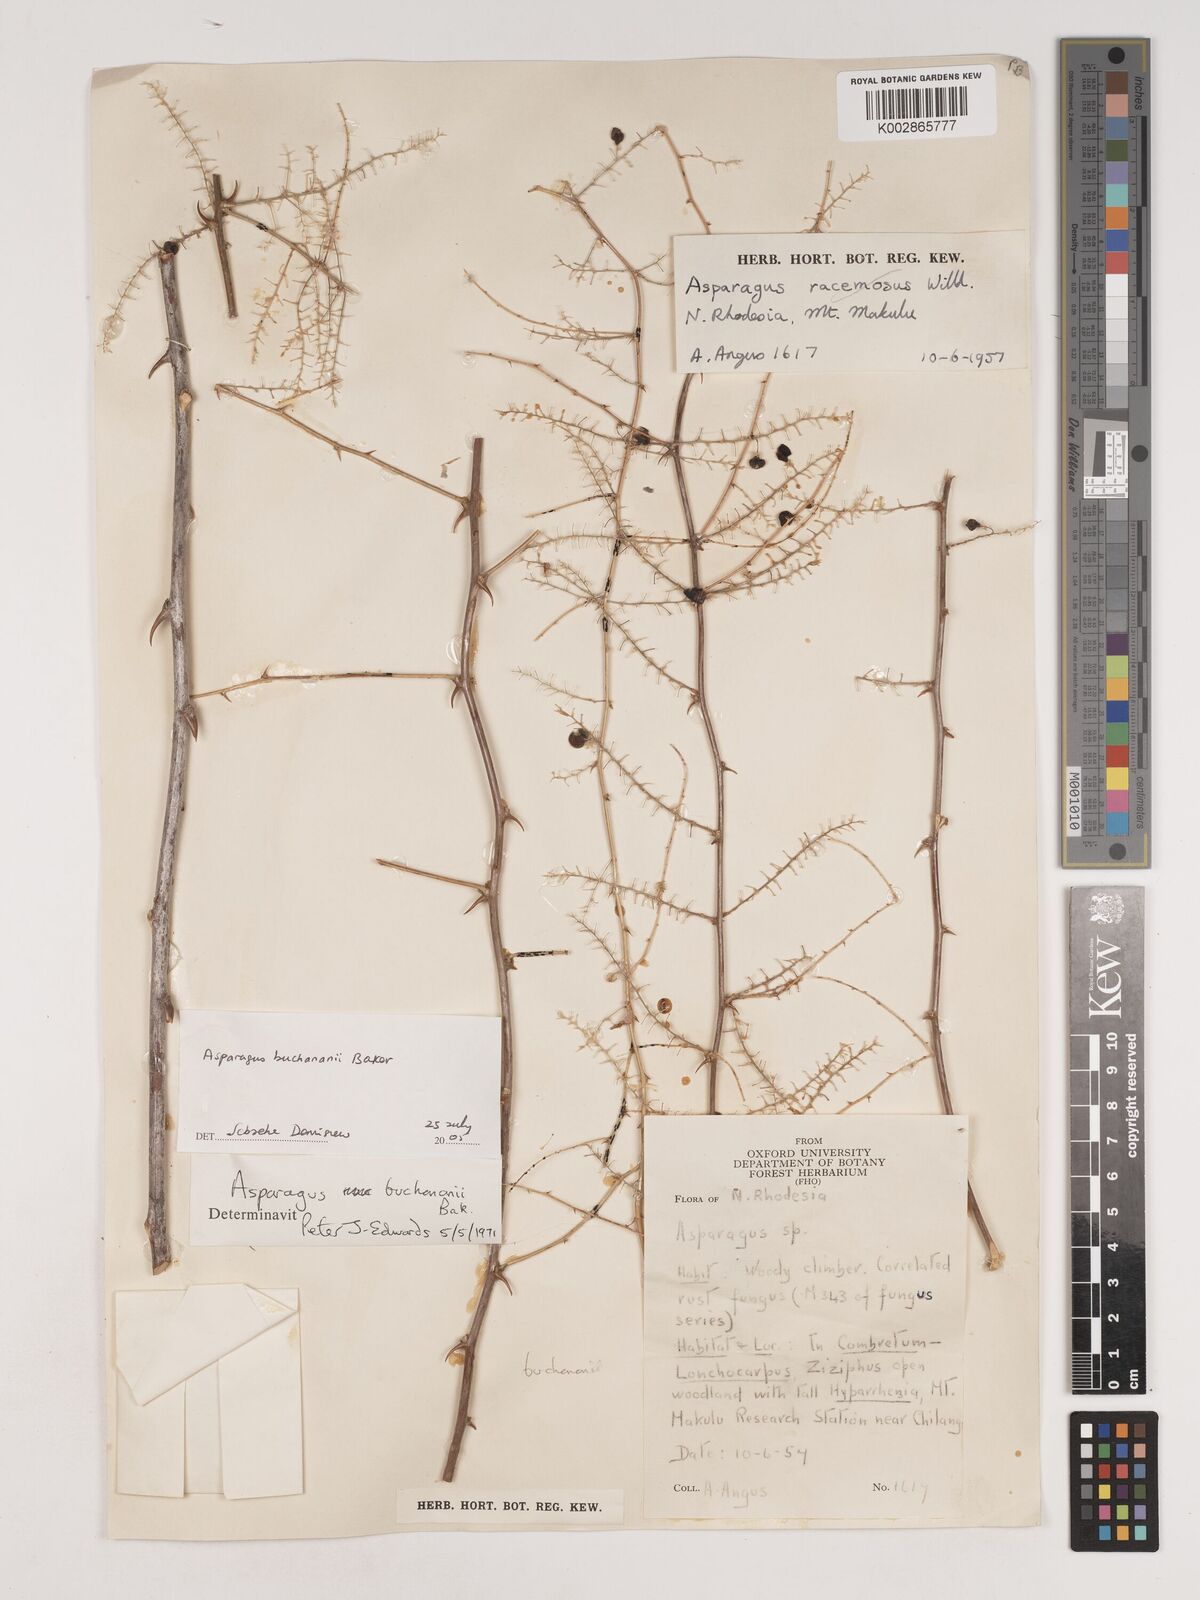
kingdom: Plantae
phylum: Tracheophyta
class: Liliopsida
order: Asparagales
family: Asparagaceae
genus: Asparagus
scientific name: Asparagus buchananii
